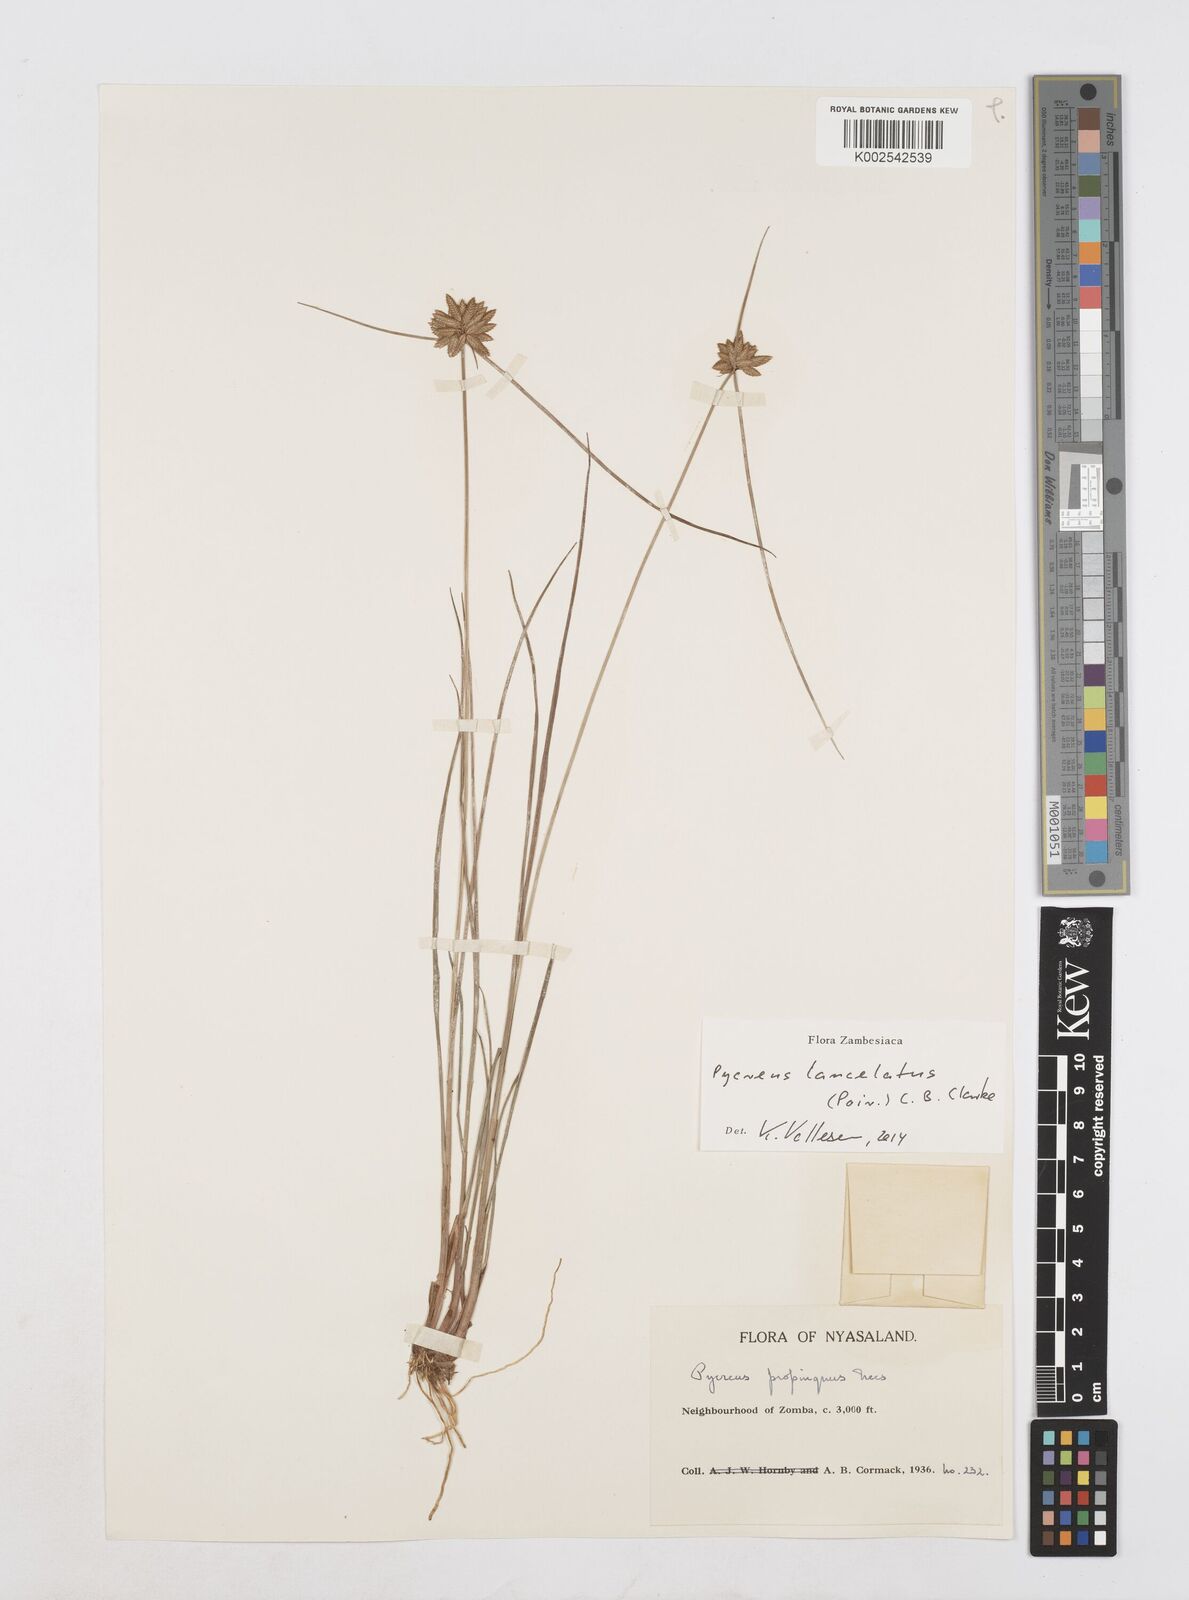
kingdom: Plantae
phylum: Tracheophyta
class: Liliopsida
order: Poales
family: Cyperaceae
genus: Cyperus
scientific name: Cyperus
